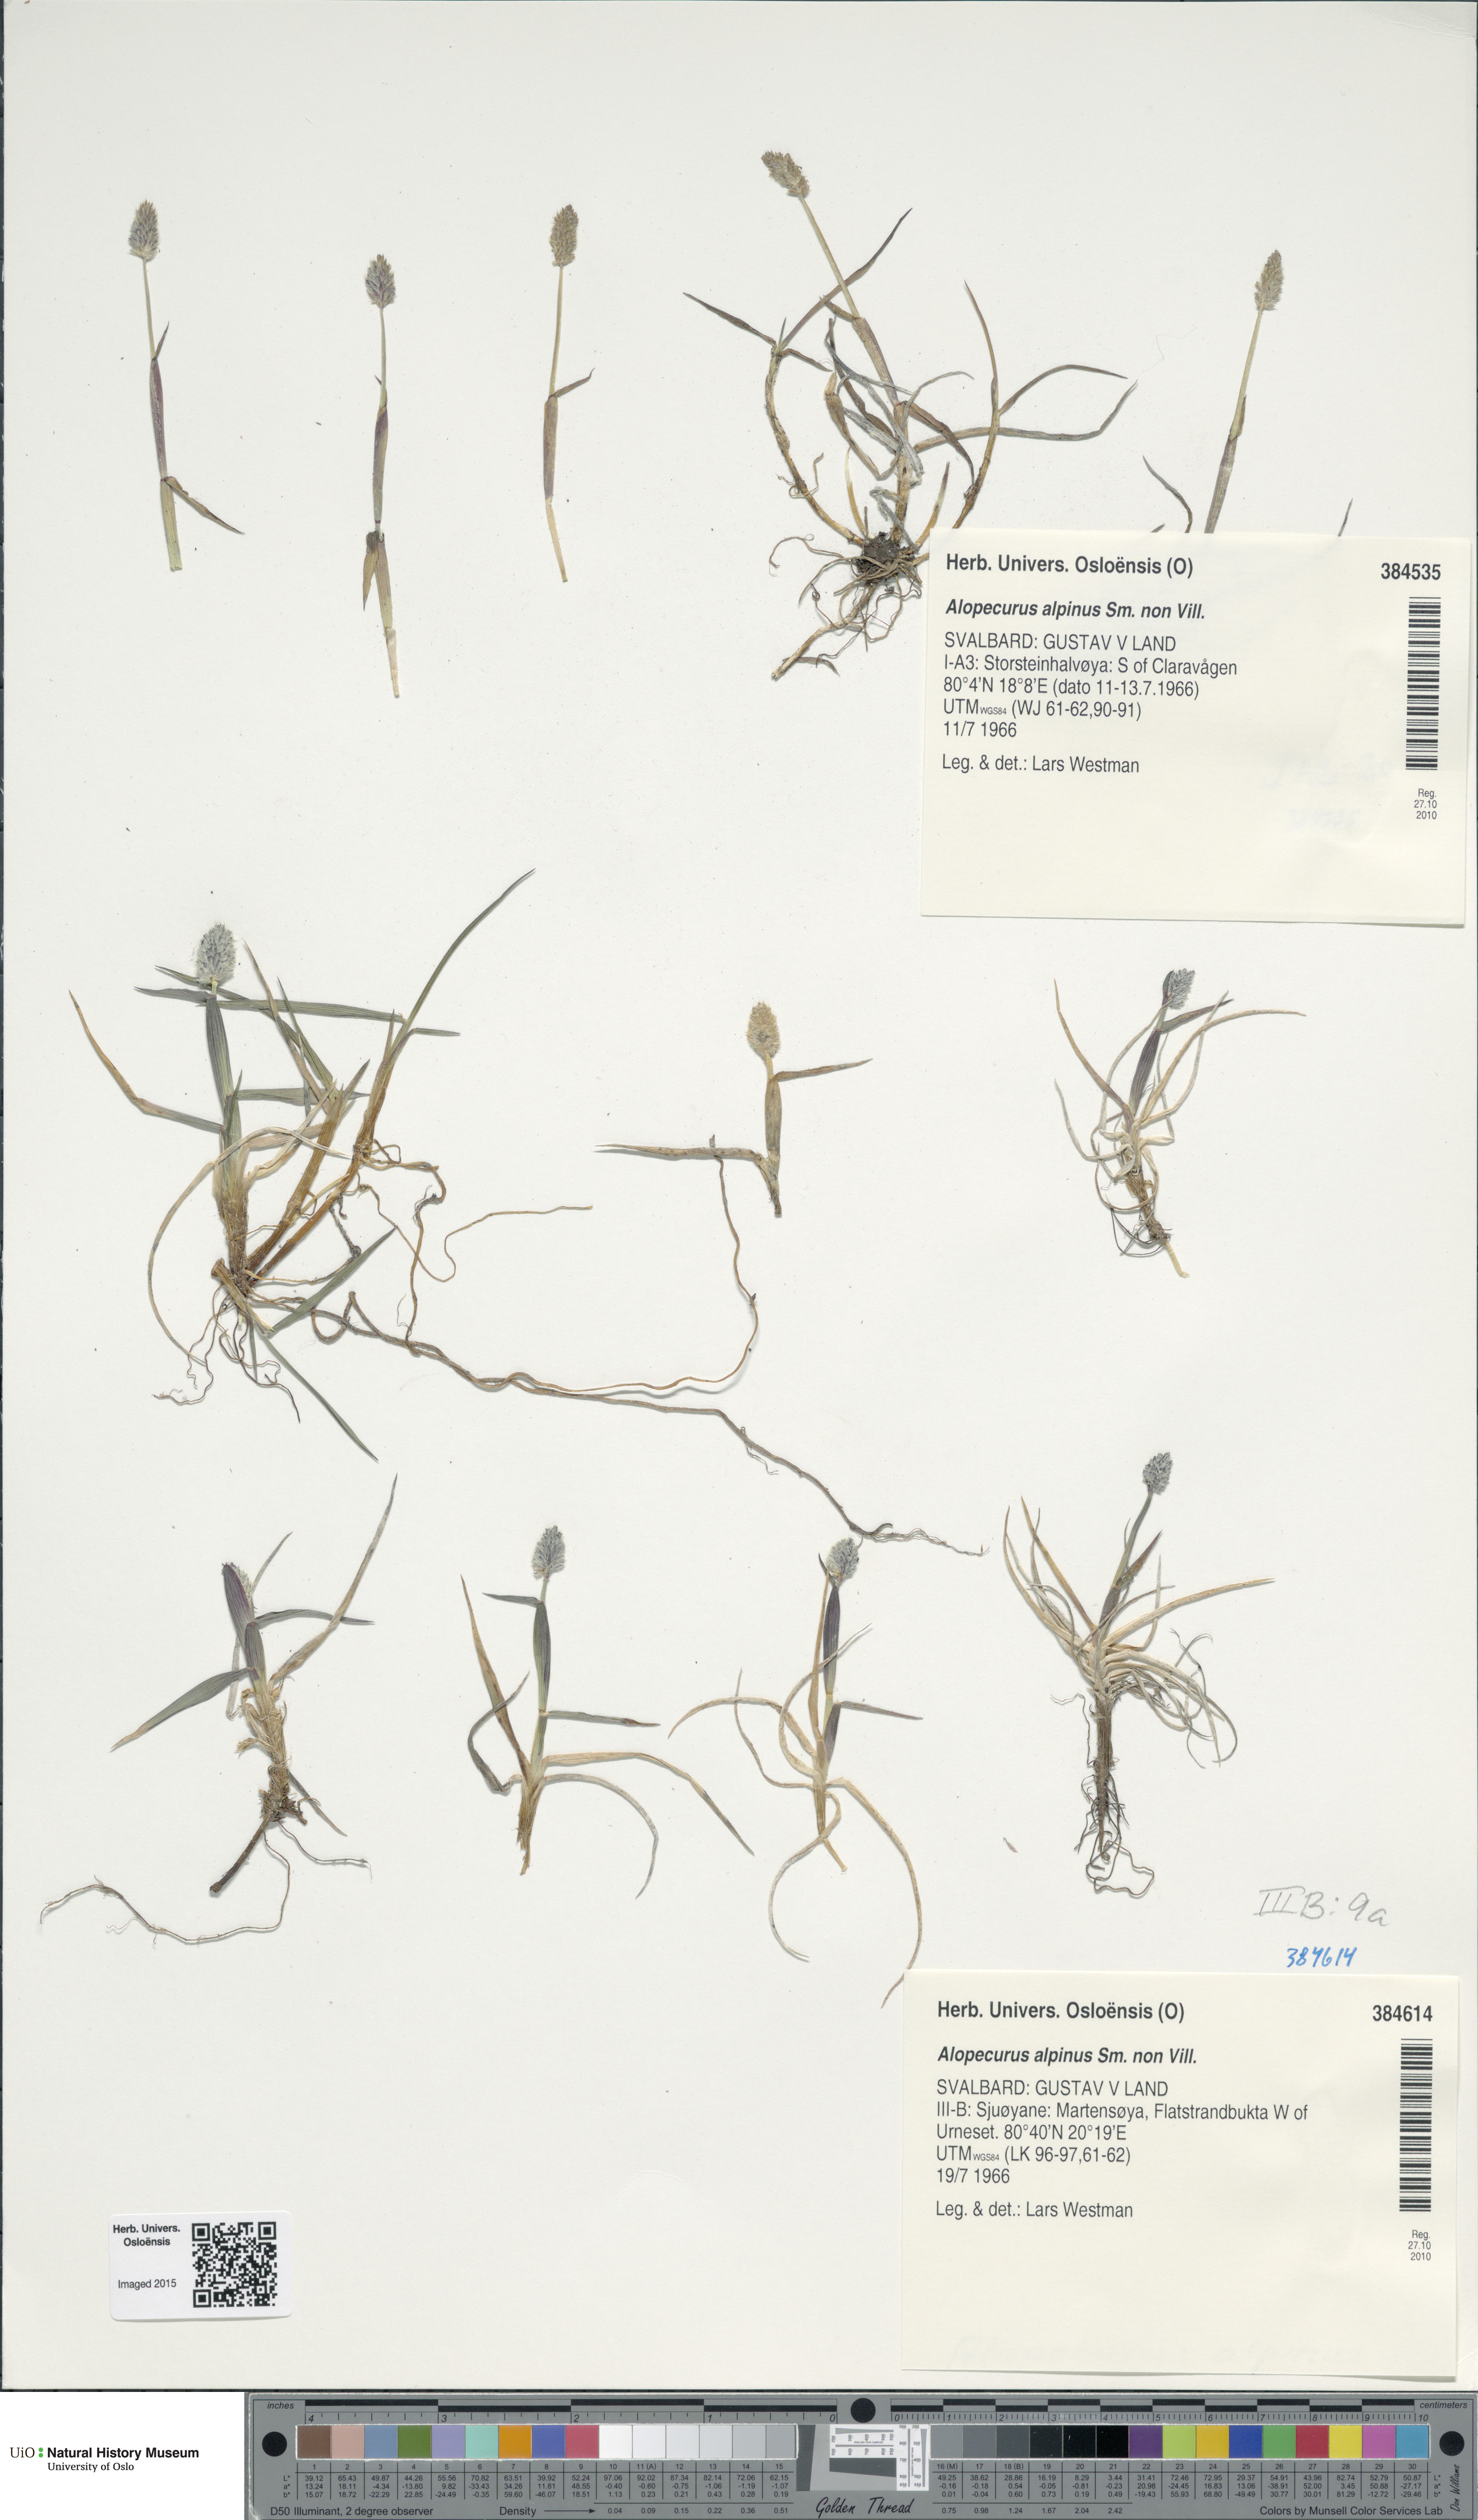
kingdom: Plantae
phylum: Tracheophyta
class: Liliopsida
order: Poales
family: Poaceae
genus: Alopecurus
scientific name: Alopecurus magellanicus
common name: Alpine foxtail
